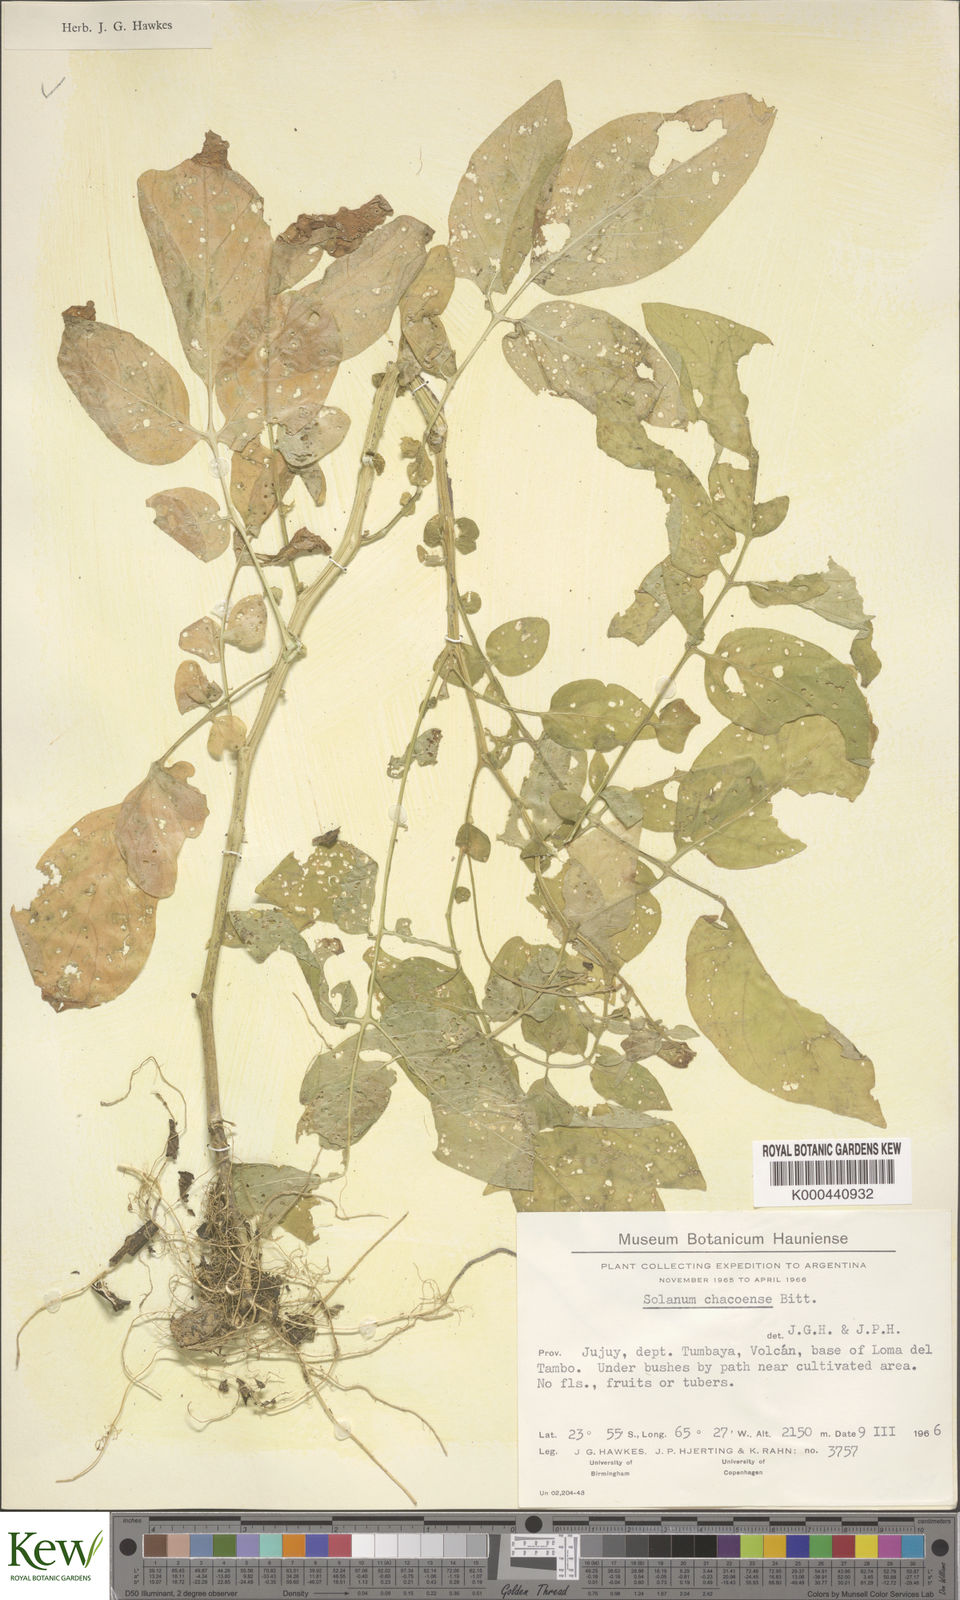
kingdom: Plantae
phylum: Tracheophyta
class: Magnoliopsida
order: Solanales
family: Solanaceae
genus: Solanum
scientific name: Solanum chacoense
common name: Chaco potato
